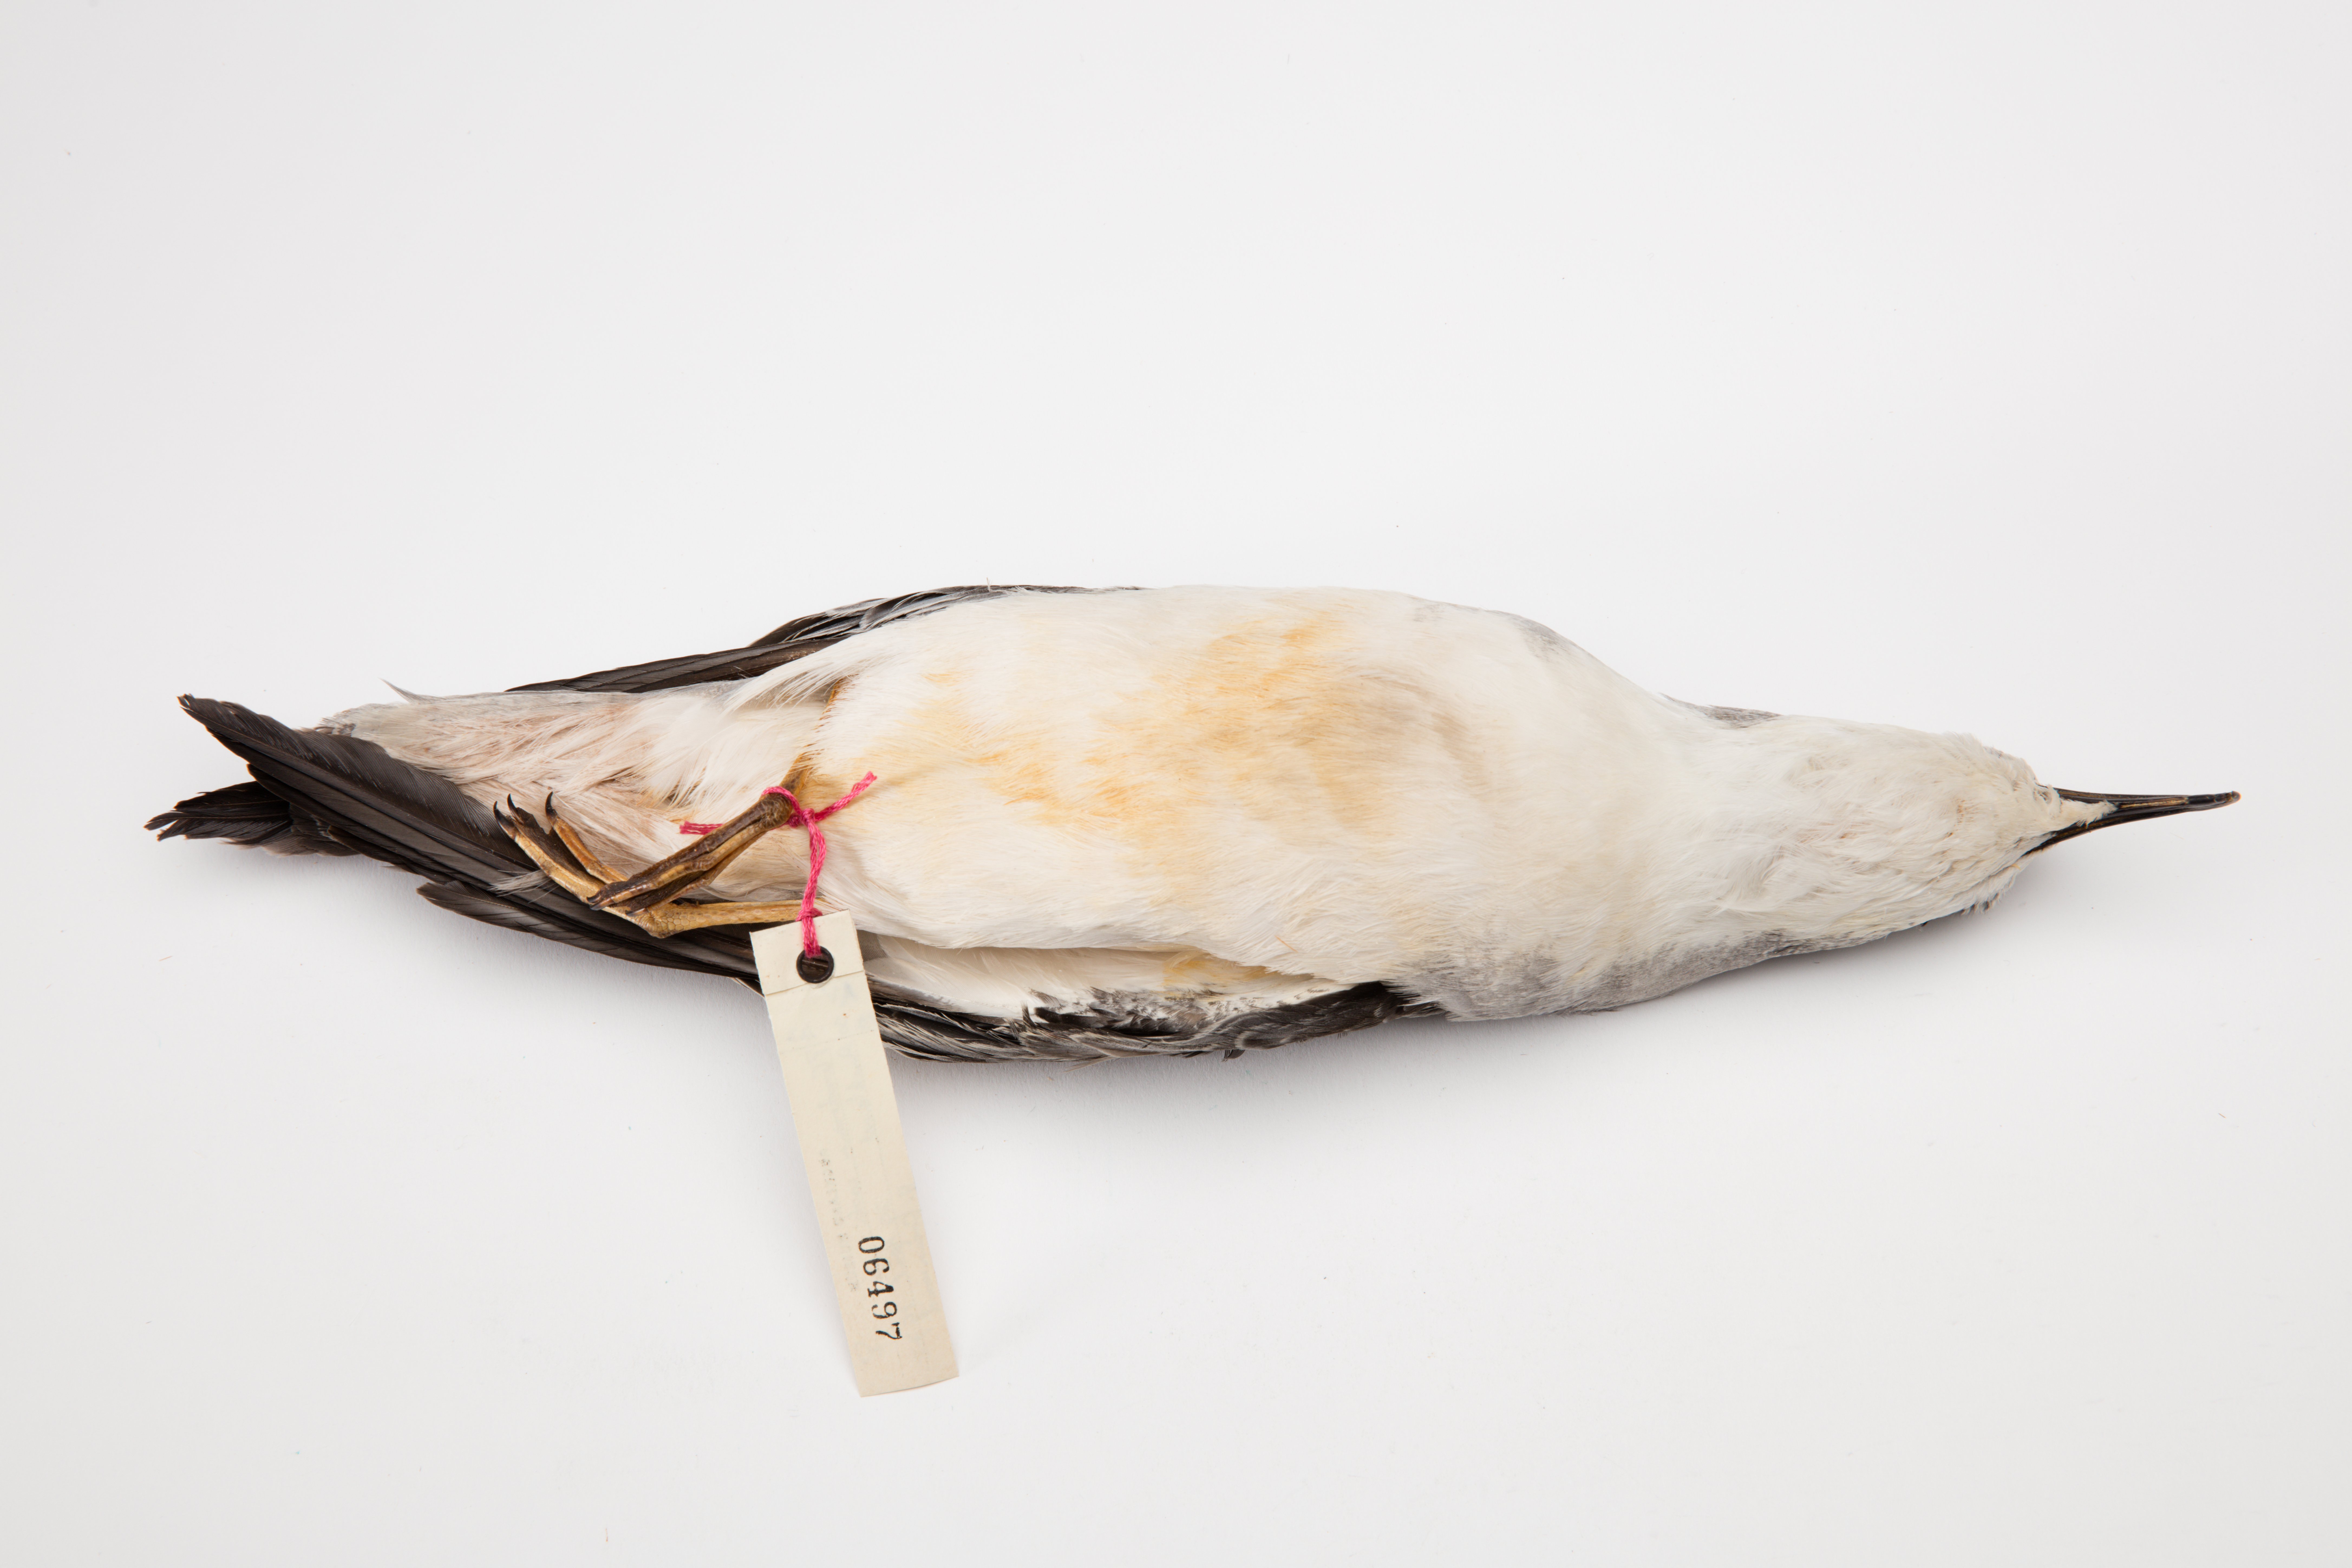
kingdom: Animalia
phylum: Chordata
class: Aves
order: Procellariiformes
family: Procellariidae
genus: Pterodroma
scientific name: Pterodroma cookii
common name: Cook's petrel
